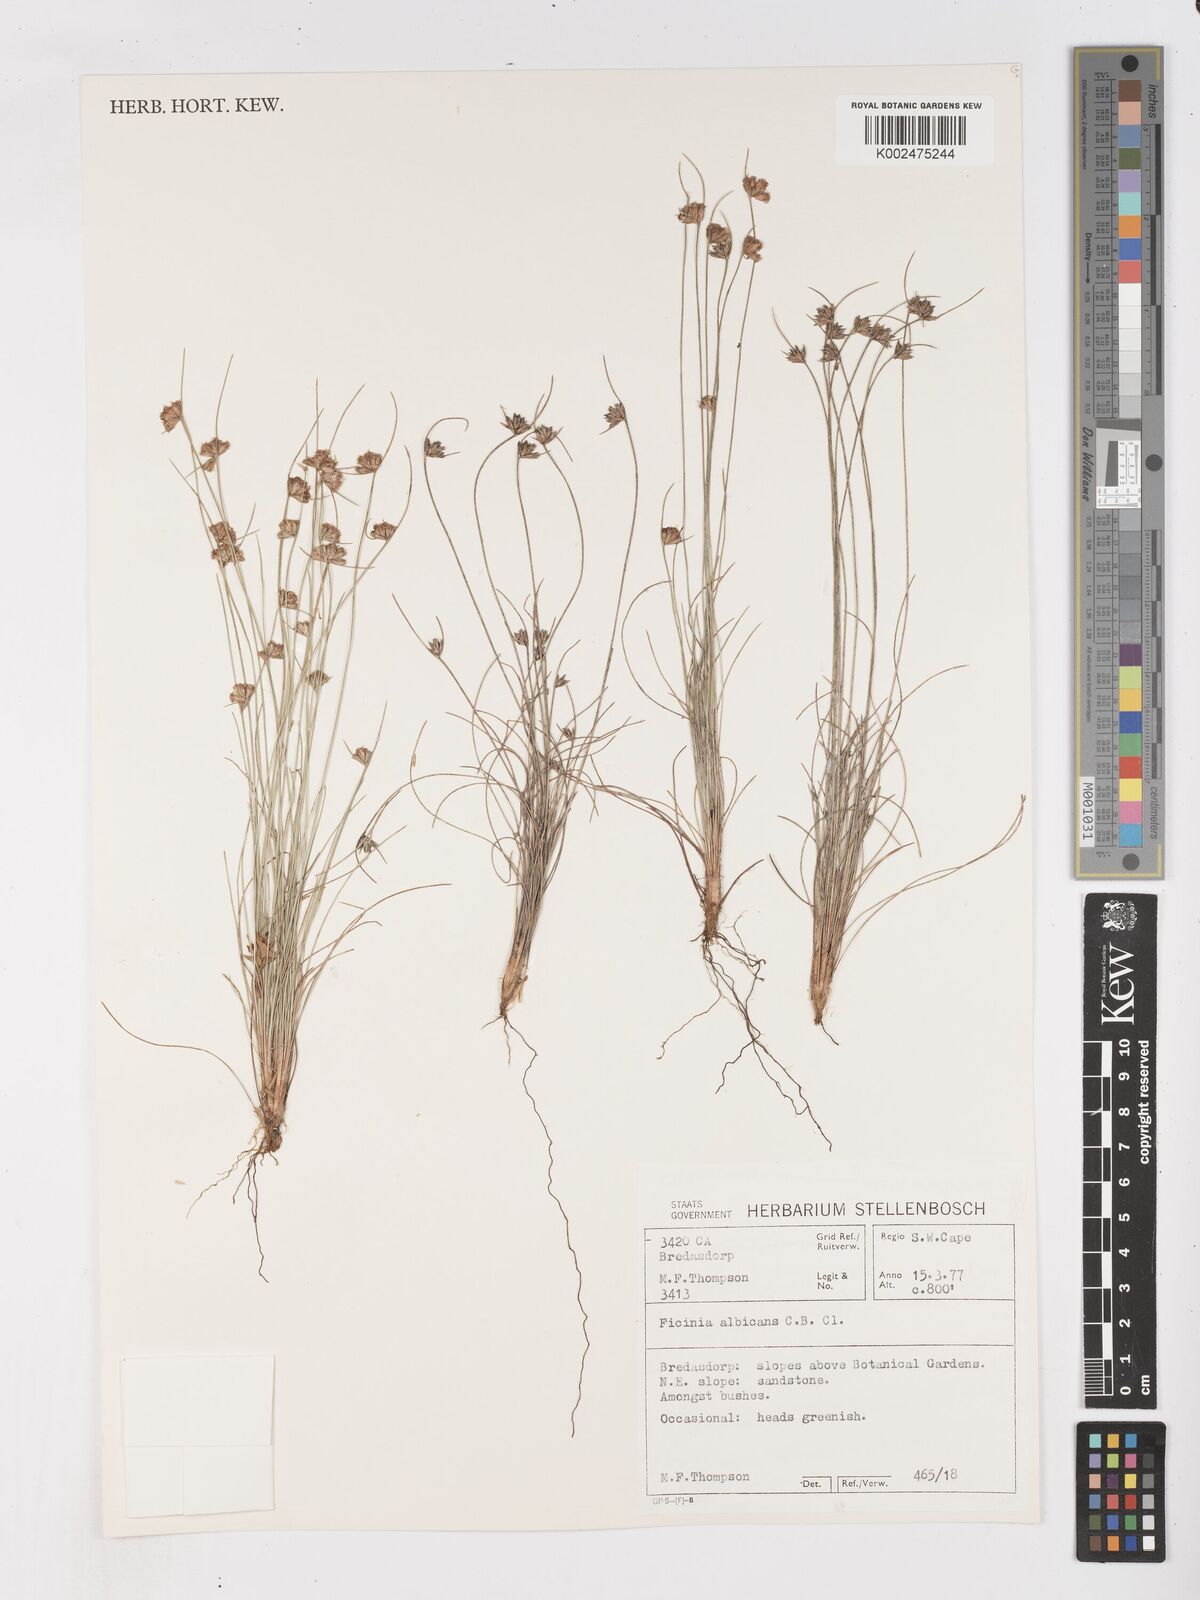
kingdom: Plantae
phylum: Tracheophyta
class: Liliopsida
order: Poales
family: Cyperaceae
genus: Ficinia
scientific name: Ficinia albicans
